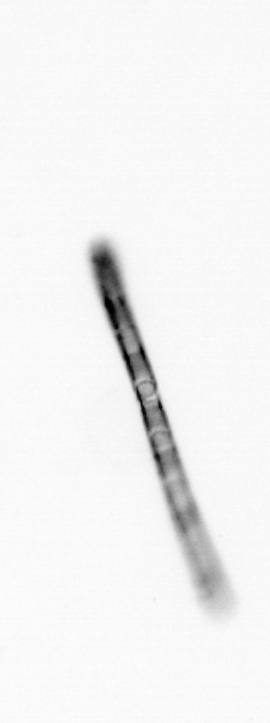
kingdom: Chromista
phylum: Ochrophyta
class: Bacillariophyceae
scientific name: Bacillariophyceae
